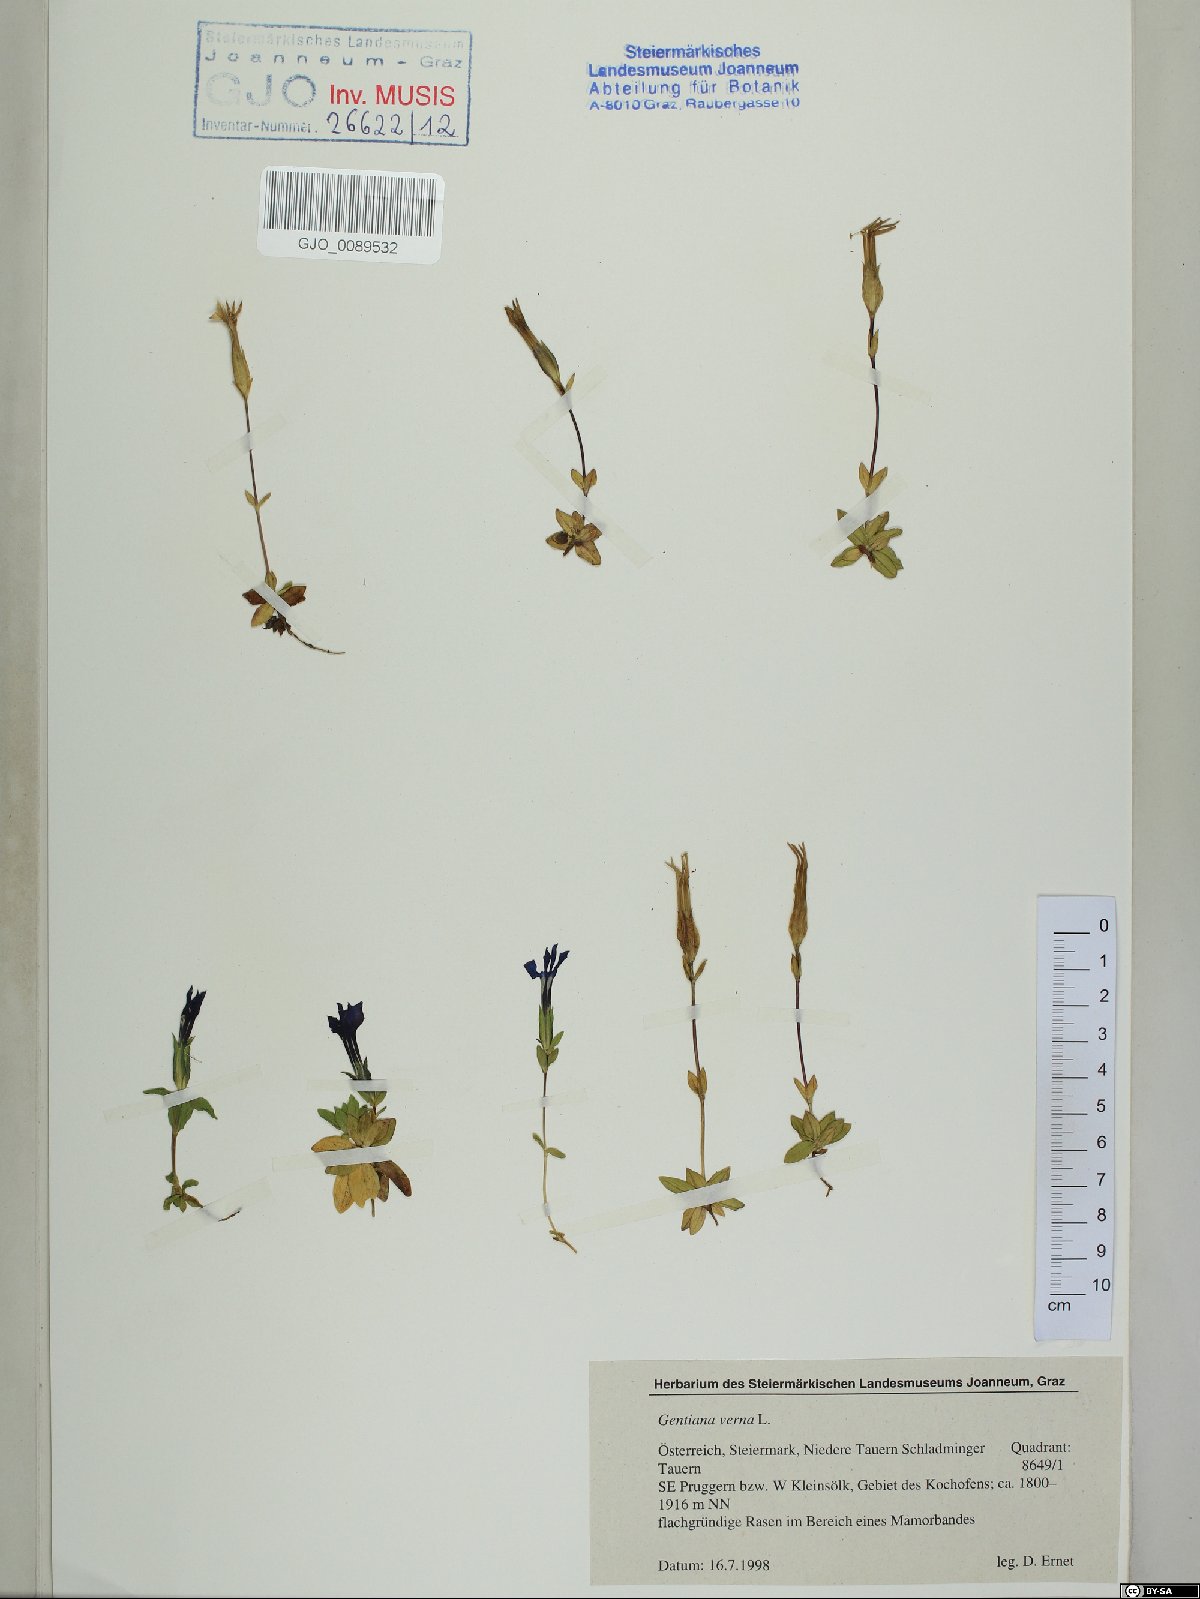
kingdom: Plantae
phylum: Tracheophyta
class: Magnoliopsida
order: Gentianales
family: Gentianaceae
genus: Gentiana
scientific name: Gentiana verna
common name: Spring gentian
